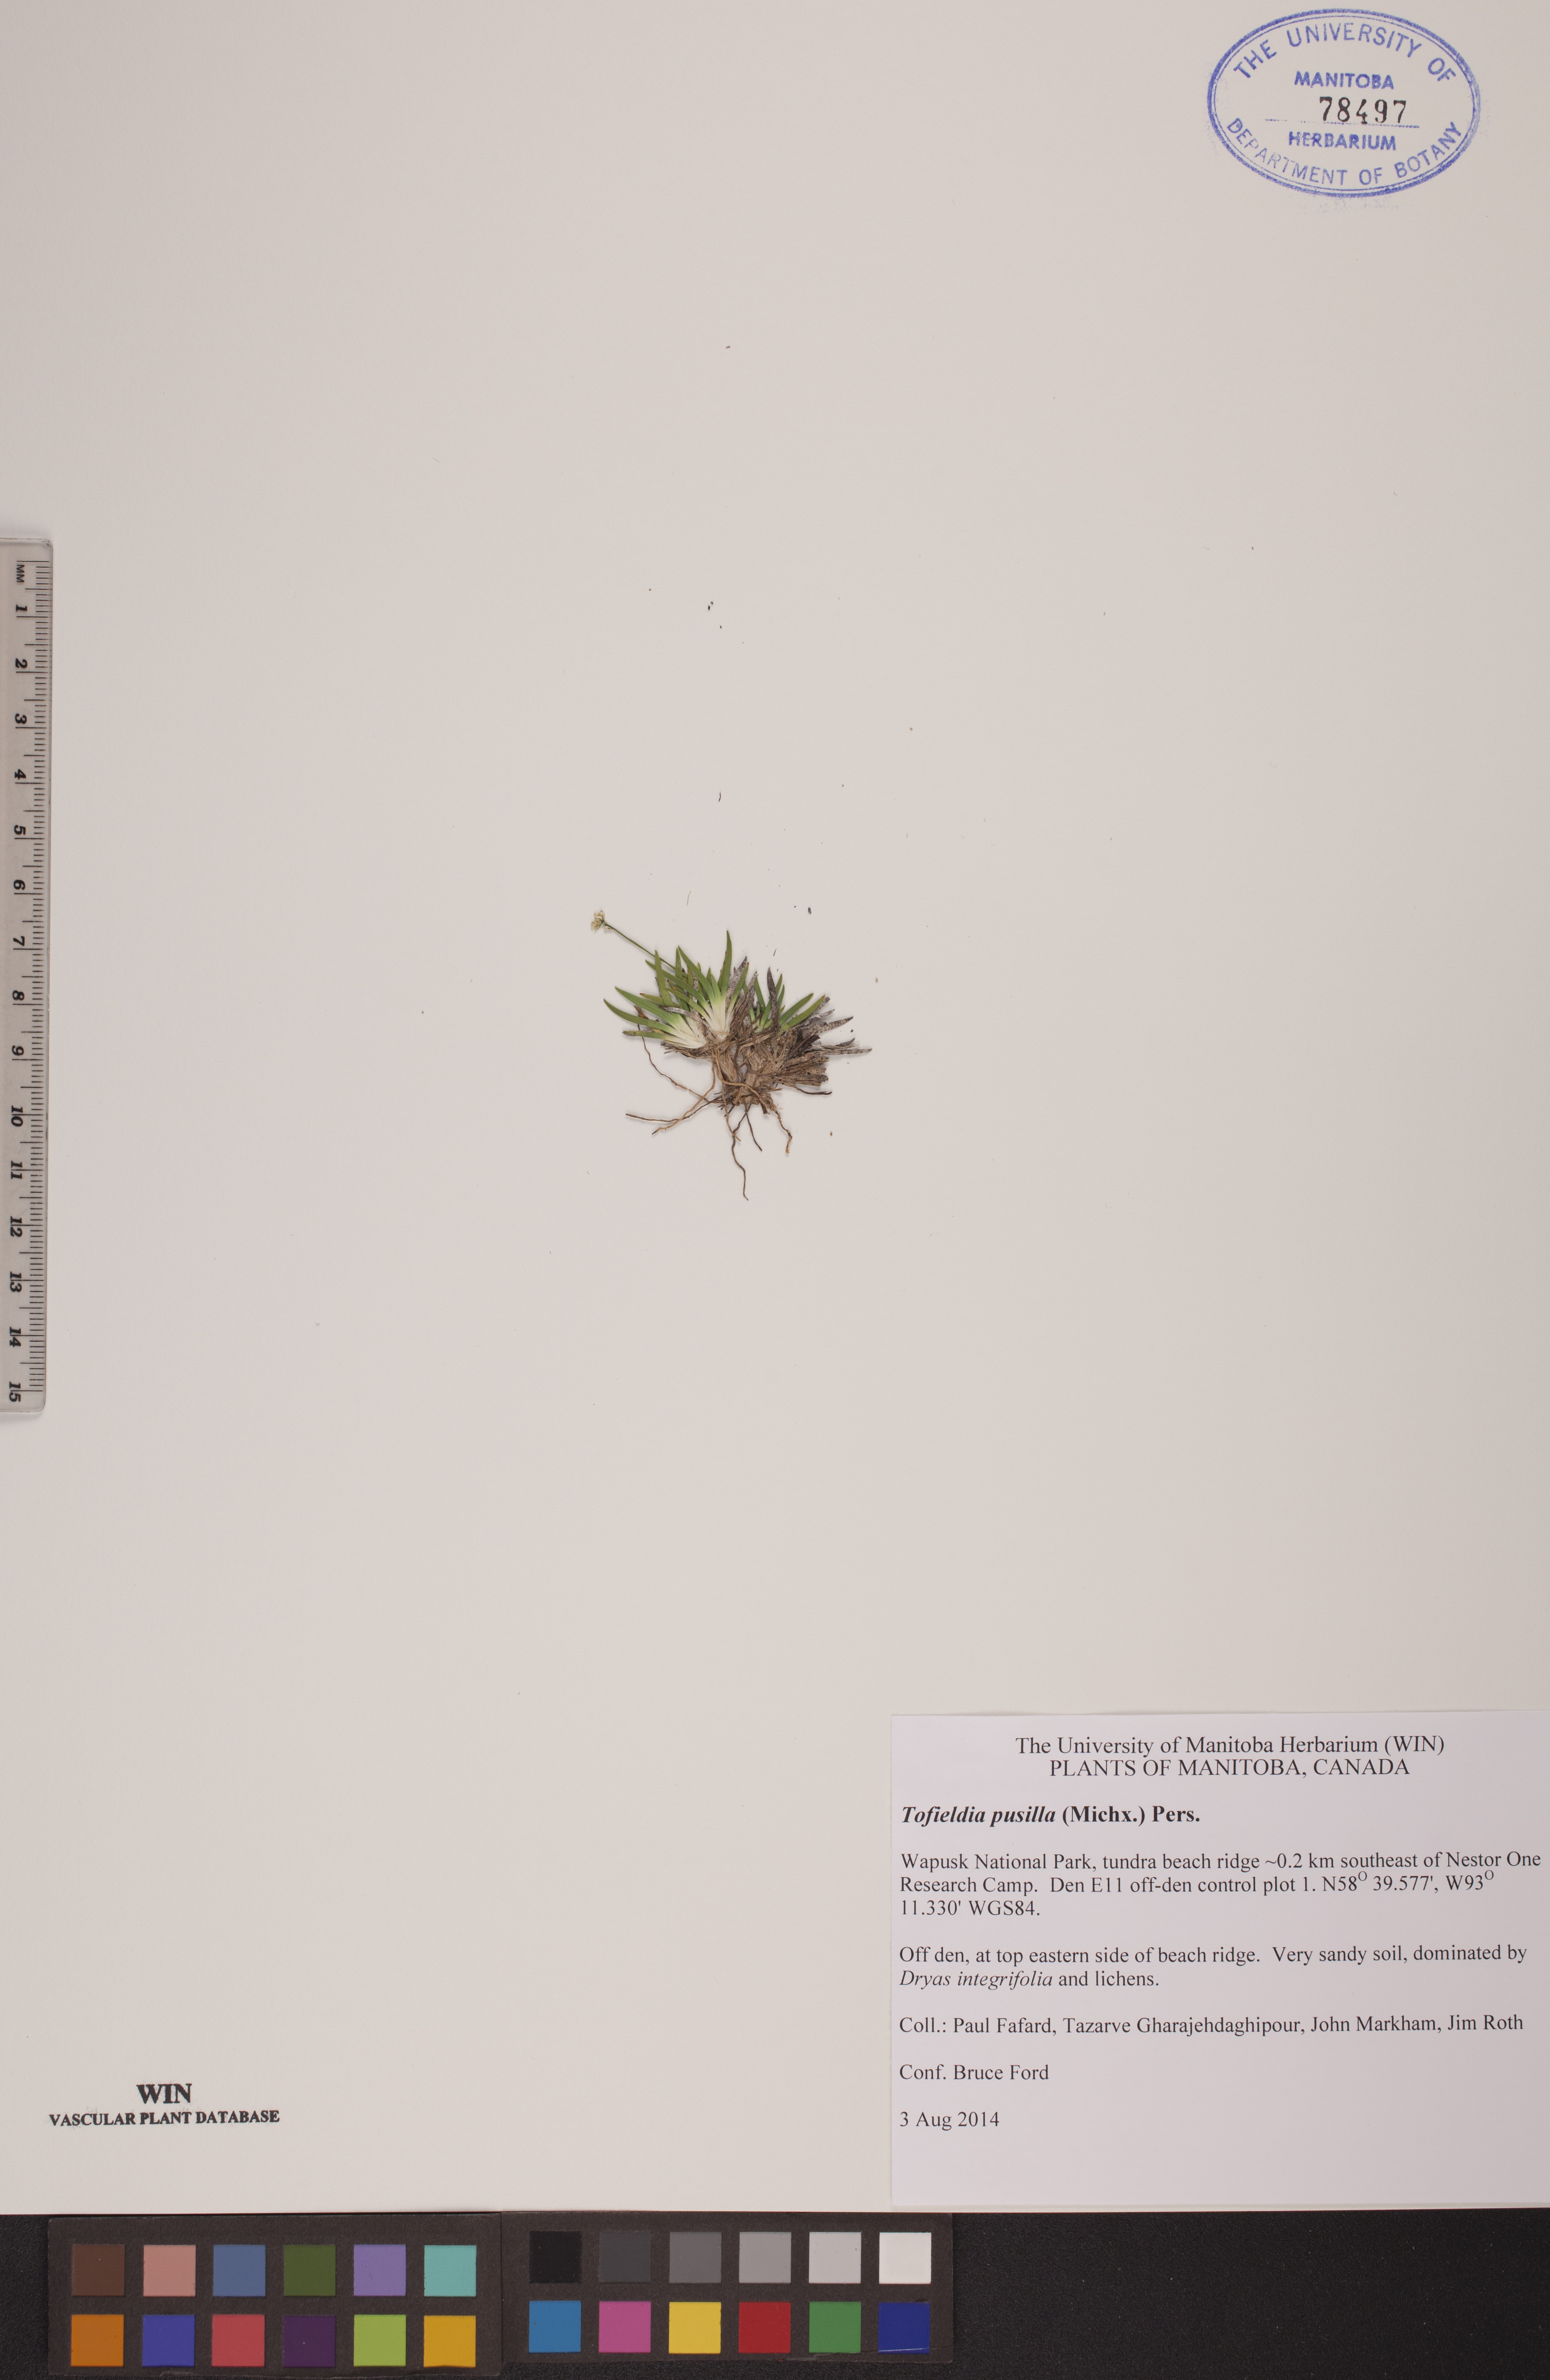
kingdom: Plantae
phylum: Tracheophyta
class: Liliopsida
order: Alismatales
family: Tofieldiaceae
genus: Tofieldia
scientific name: Tofieldia pusilla
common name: Scottish false asphodel
